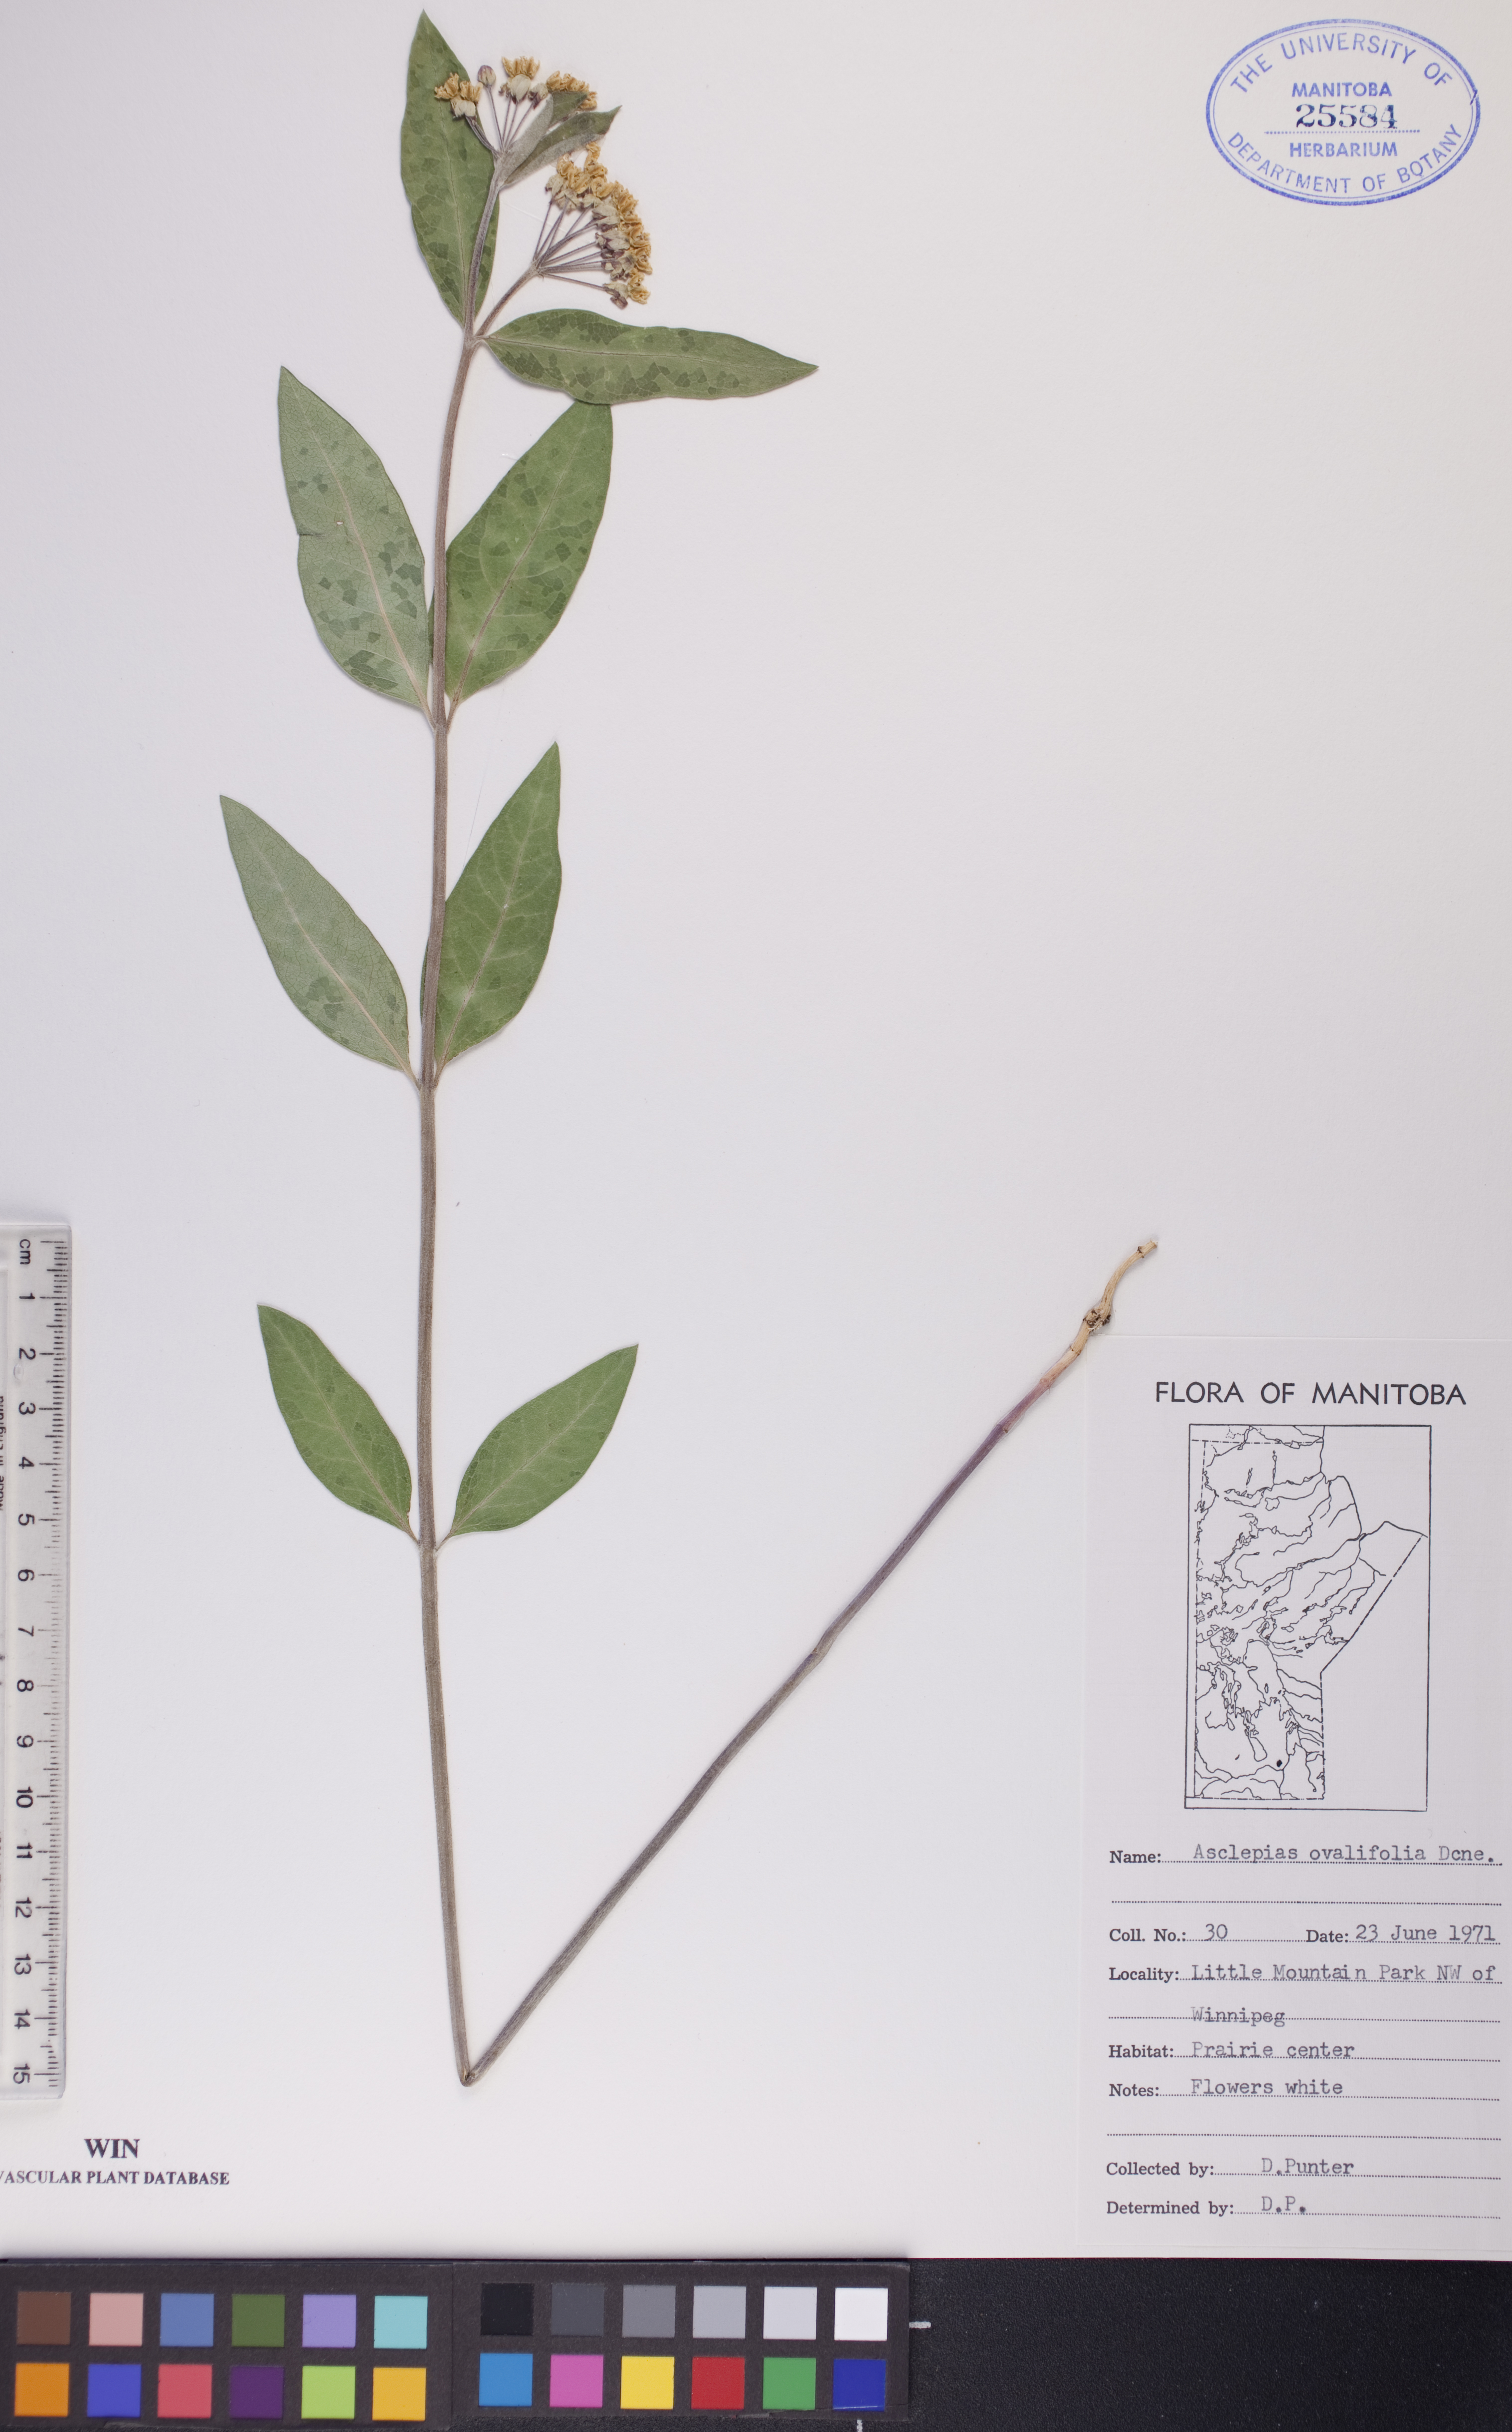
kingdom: Plantae
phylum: Tracheophyta
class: Magnoliopsida
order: Gentianales
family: Apocynaceae
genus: Asclepias
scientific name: Asclepias ovalifolia
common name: Dwarf milkweed
